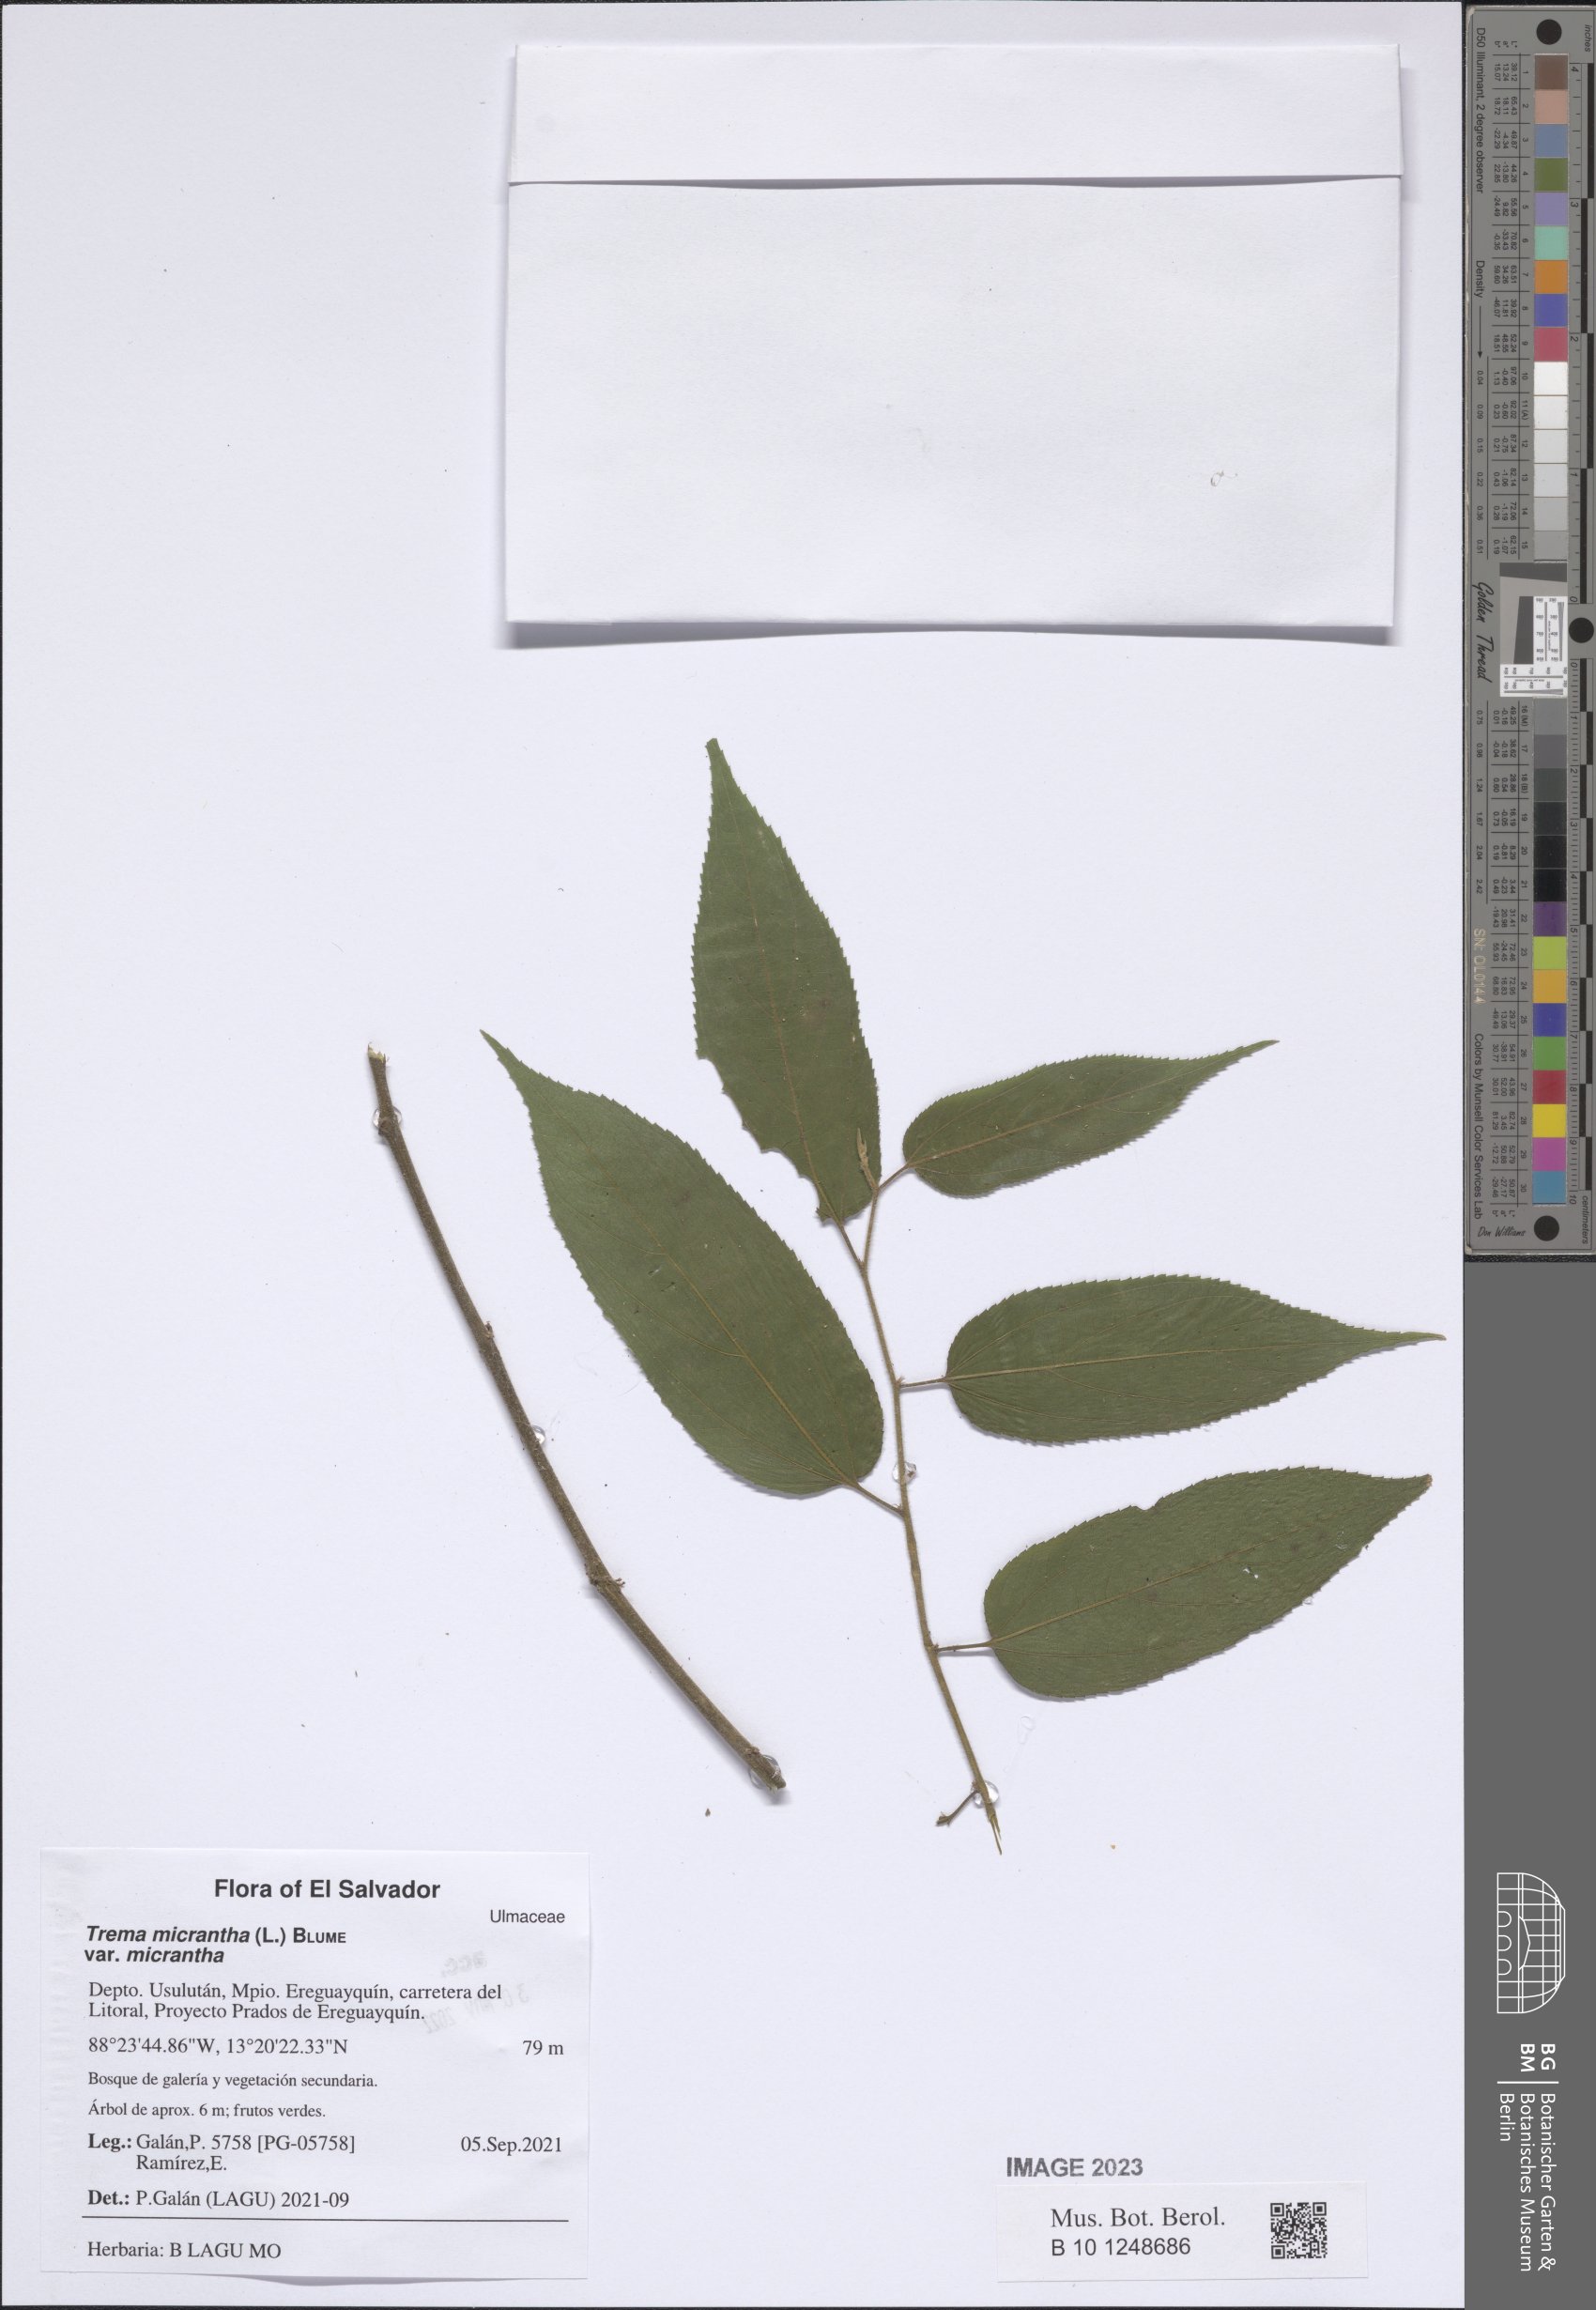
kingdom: Plantae
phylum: Tracheophyta
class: Magnoliopsida
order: Rosales
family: Cannabaceae
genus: Trema
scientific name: Trema micranthum
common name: Jamaican nettletree
